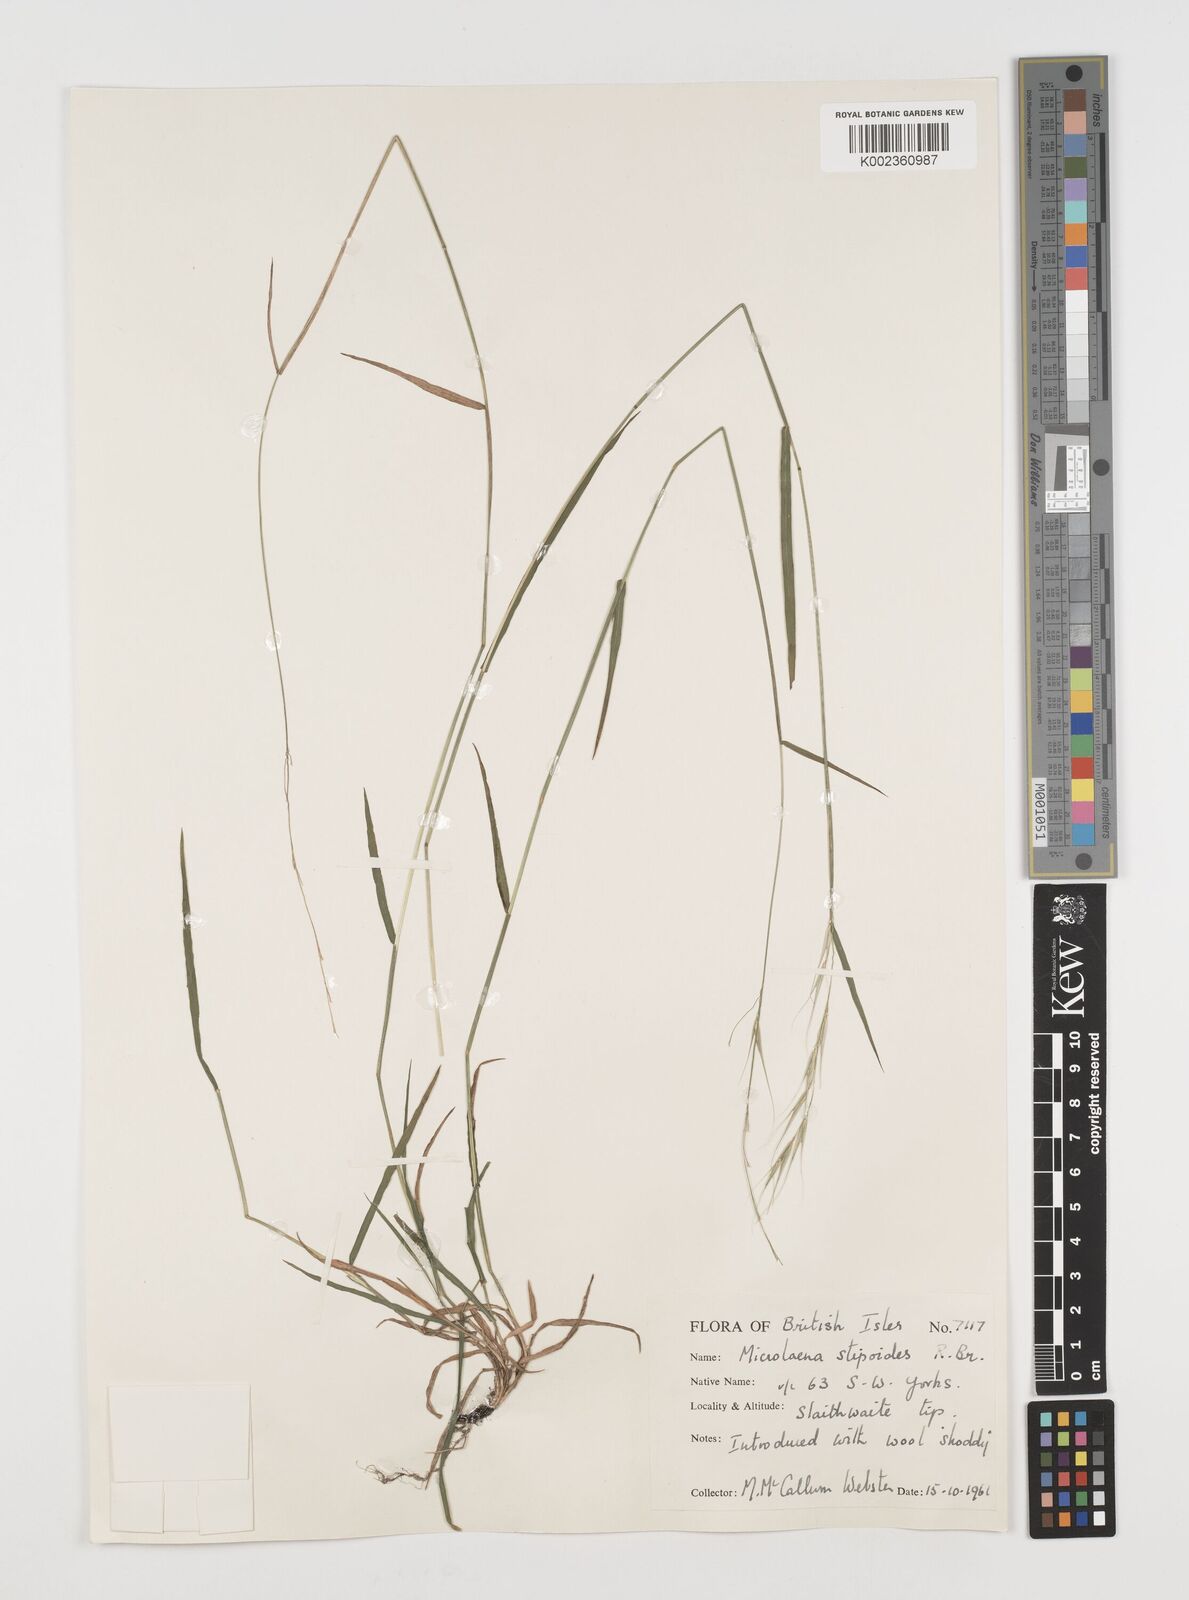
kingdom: Plantae
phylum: Tracheophyta
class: Liliopsida
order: Poales
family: Poaceae
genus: Microlaena
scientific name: Microlaena stipoides
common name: Meadow ricegrass
